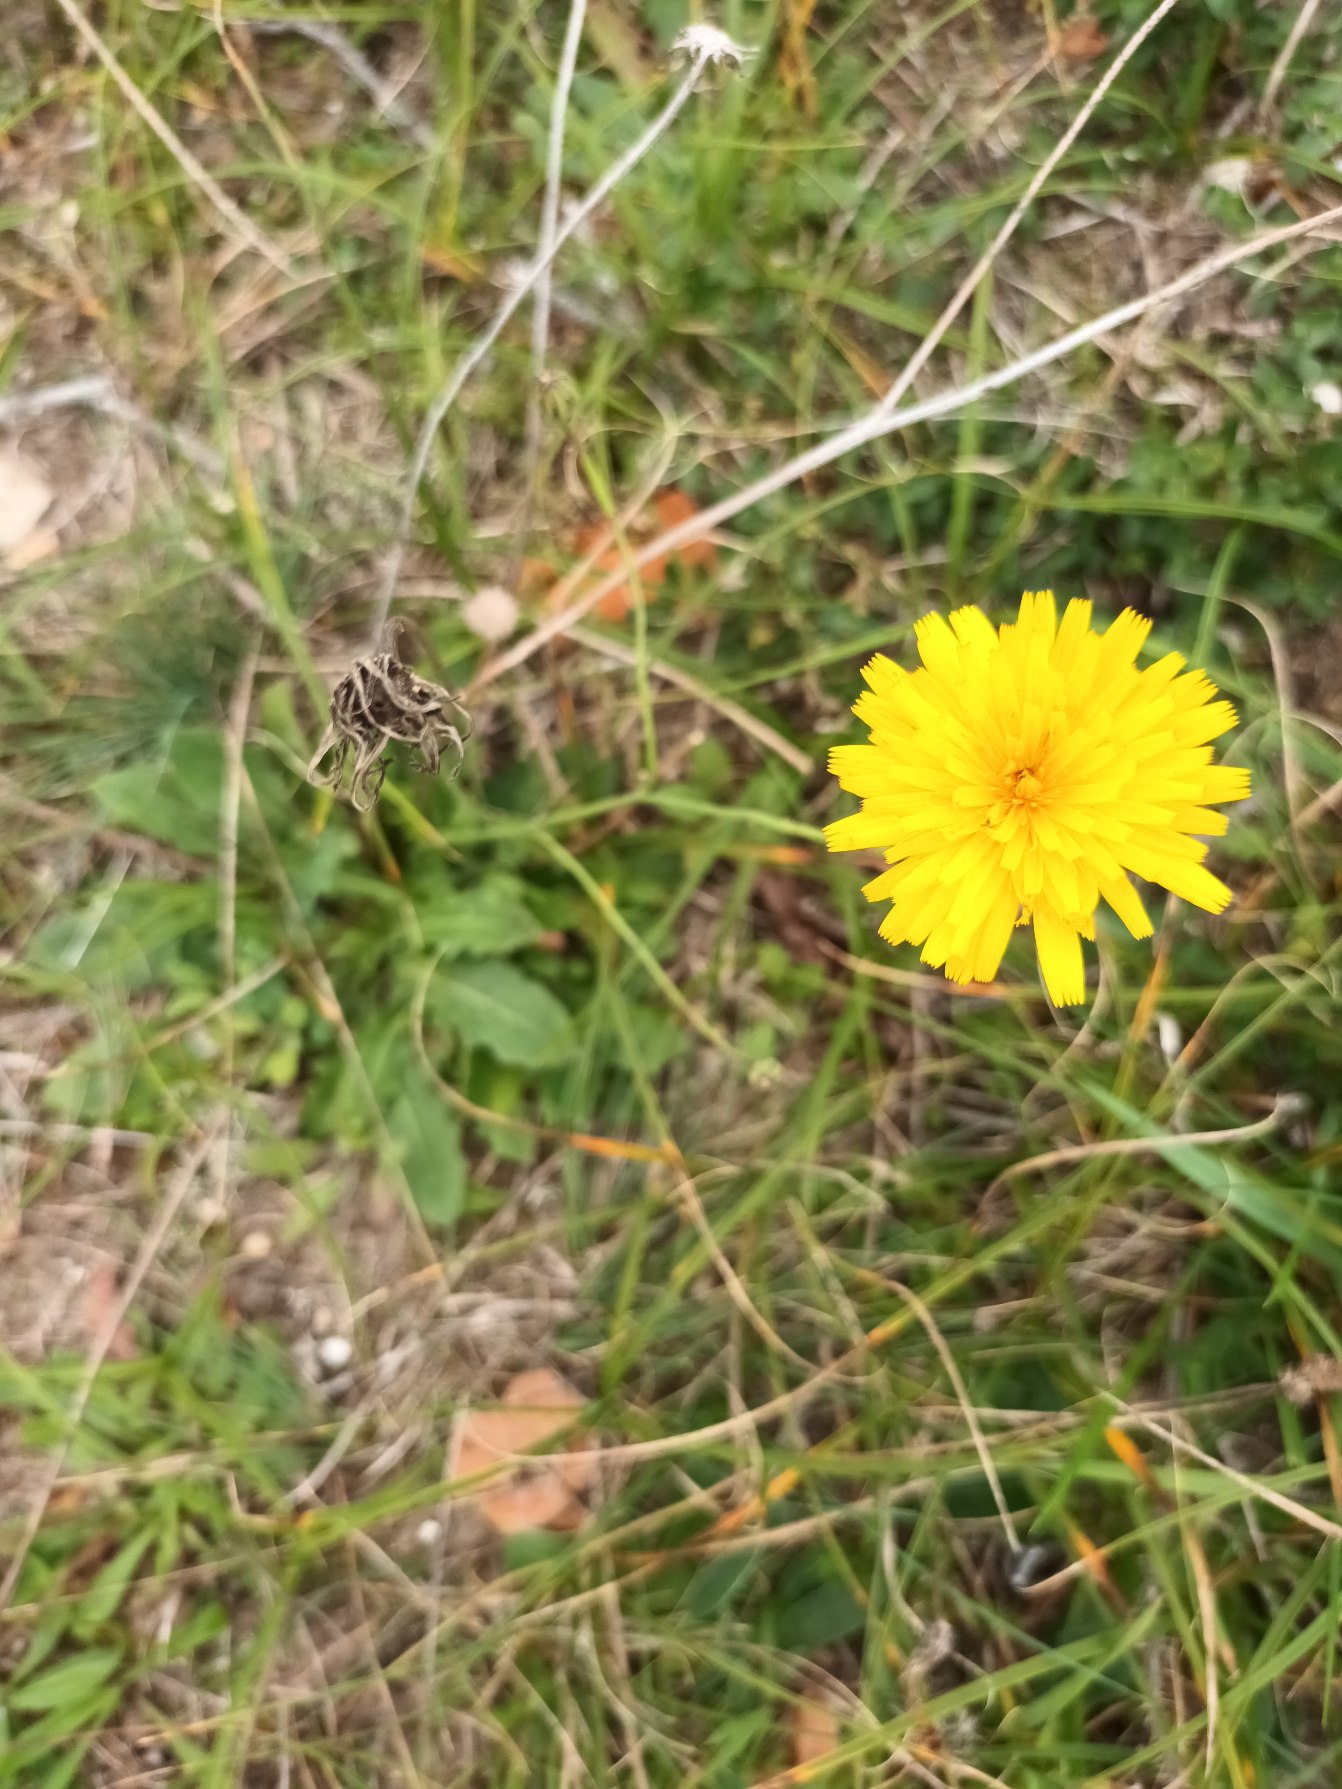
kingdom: Plantae
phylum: Tracheophyta
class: Magnoliopsida
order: Asterales
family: Asteraceae
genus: Hypochaeris
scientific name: Hypochaeris radicata
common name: Almindelig kongepen
